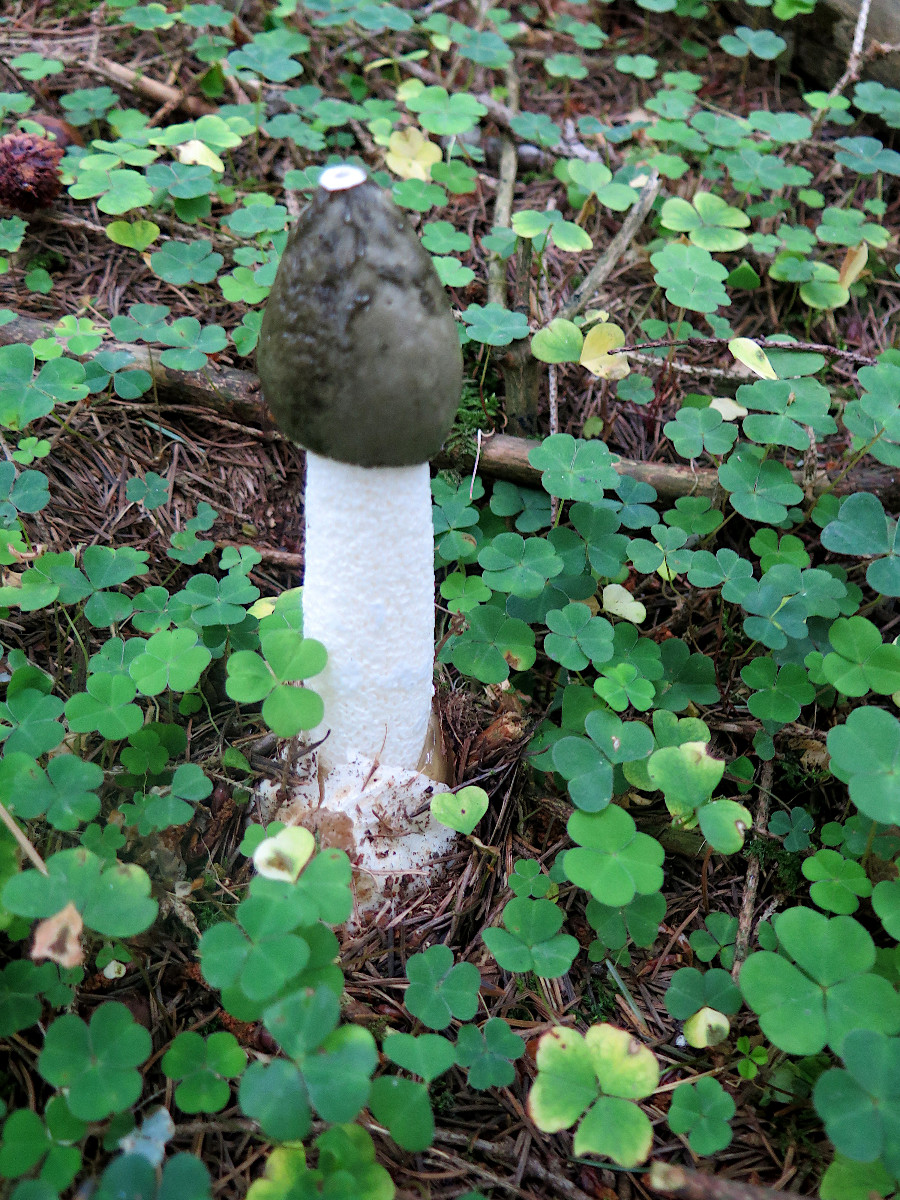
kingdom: Fungi
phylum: Basidiomycota
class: Agaricomycetes
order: Phallales
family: Phallaceae
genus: Phallus
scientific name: Phallus impudicus
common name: almindelig stinksvamp
